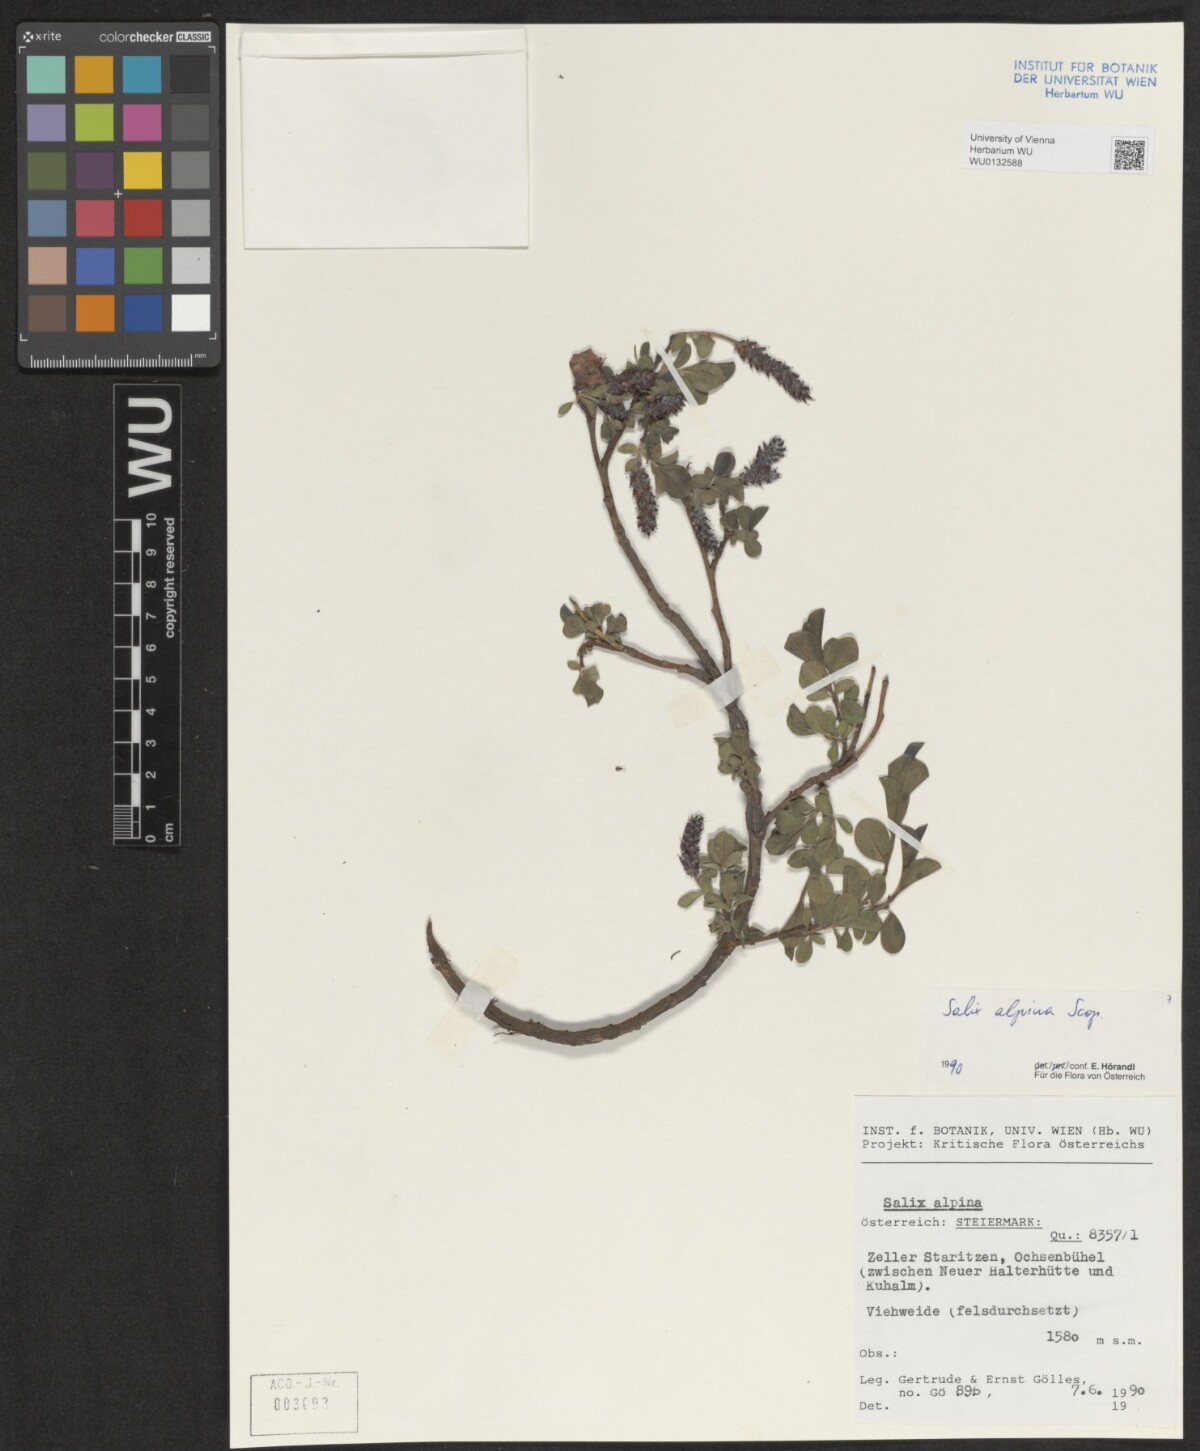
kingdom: Plantae
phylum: Tracheophyta
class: Magnoliopsida
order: Malpighiales
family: Salicaceae
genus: Salix
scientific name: Salix alpina
